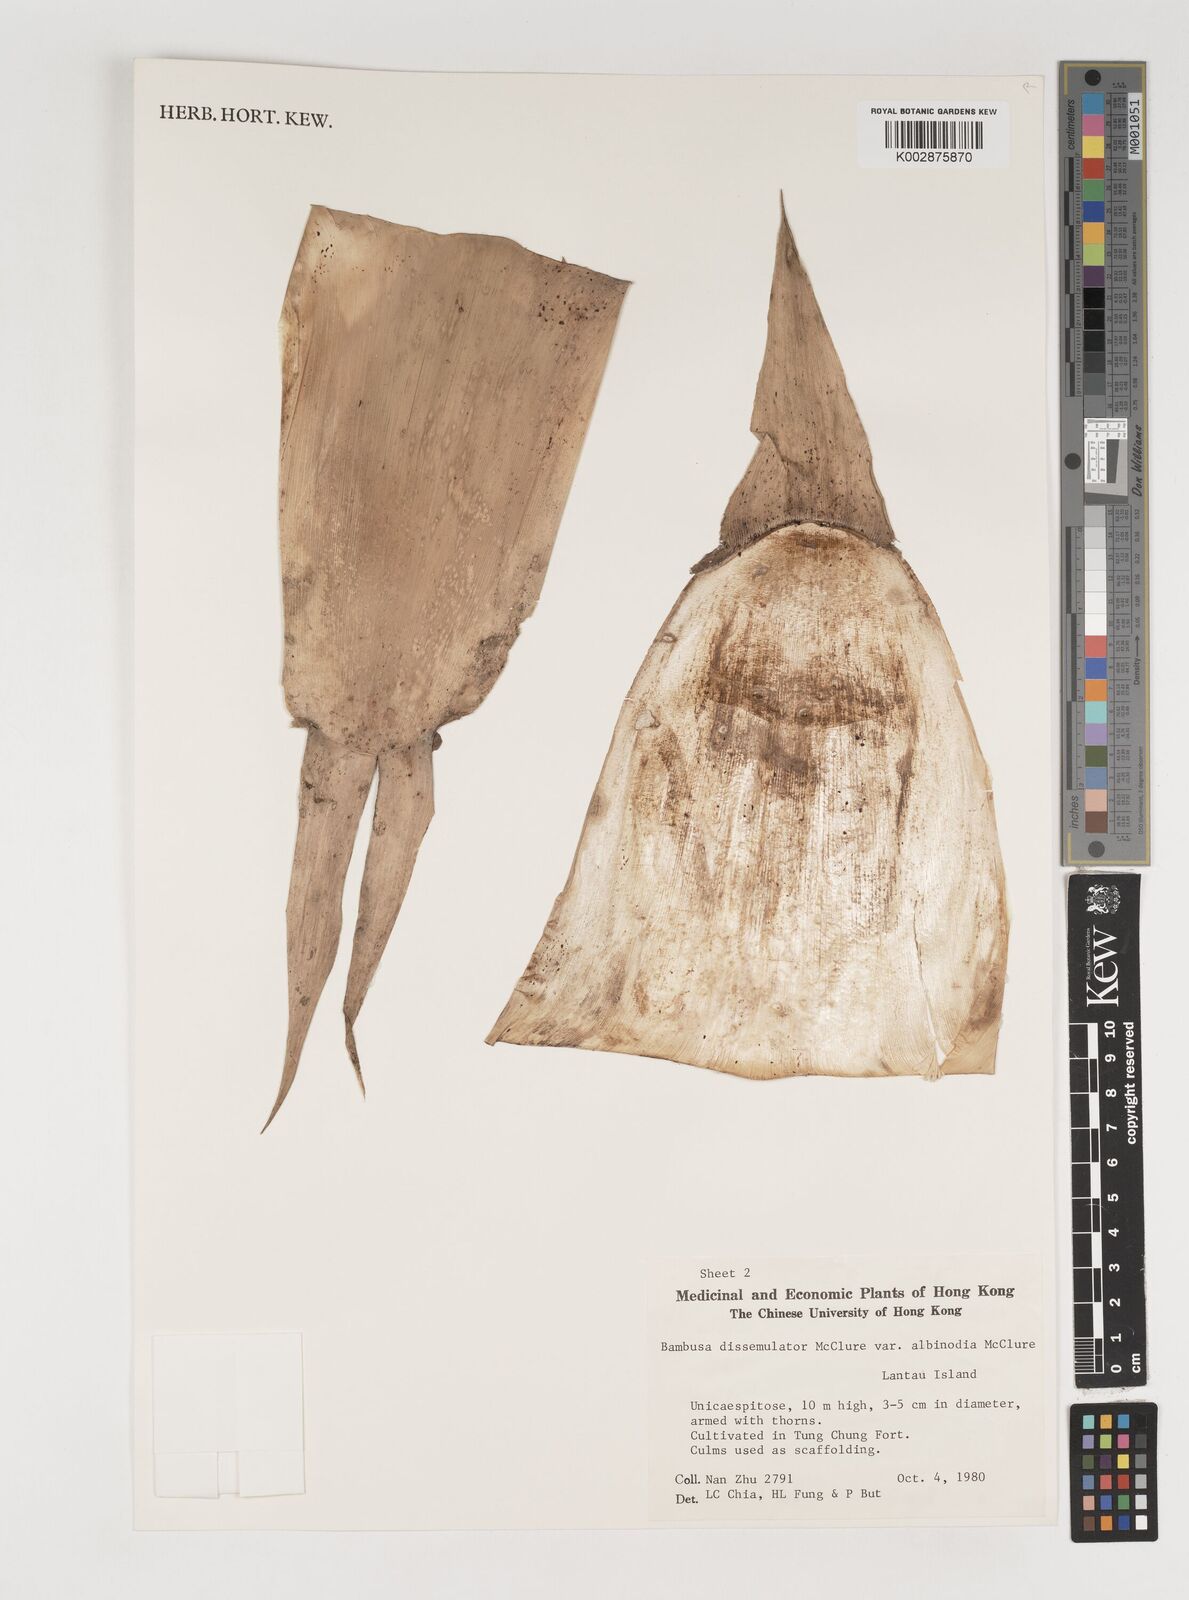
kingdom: Plantae
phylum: Tracheophyta
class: Liliopsida
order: Poales
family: Poaceae
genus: Bambusa
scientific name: Bambusa dissimulator
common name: Muddy bamboo
